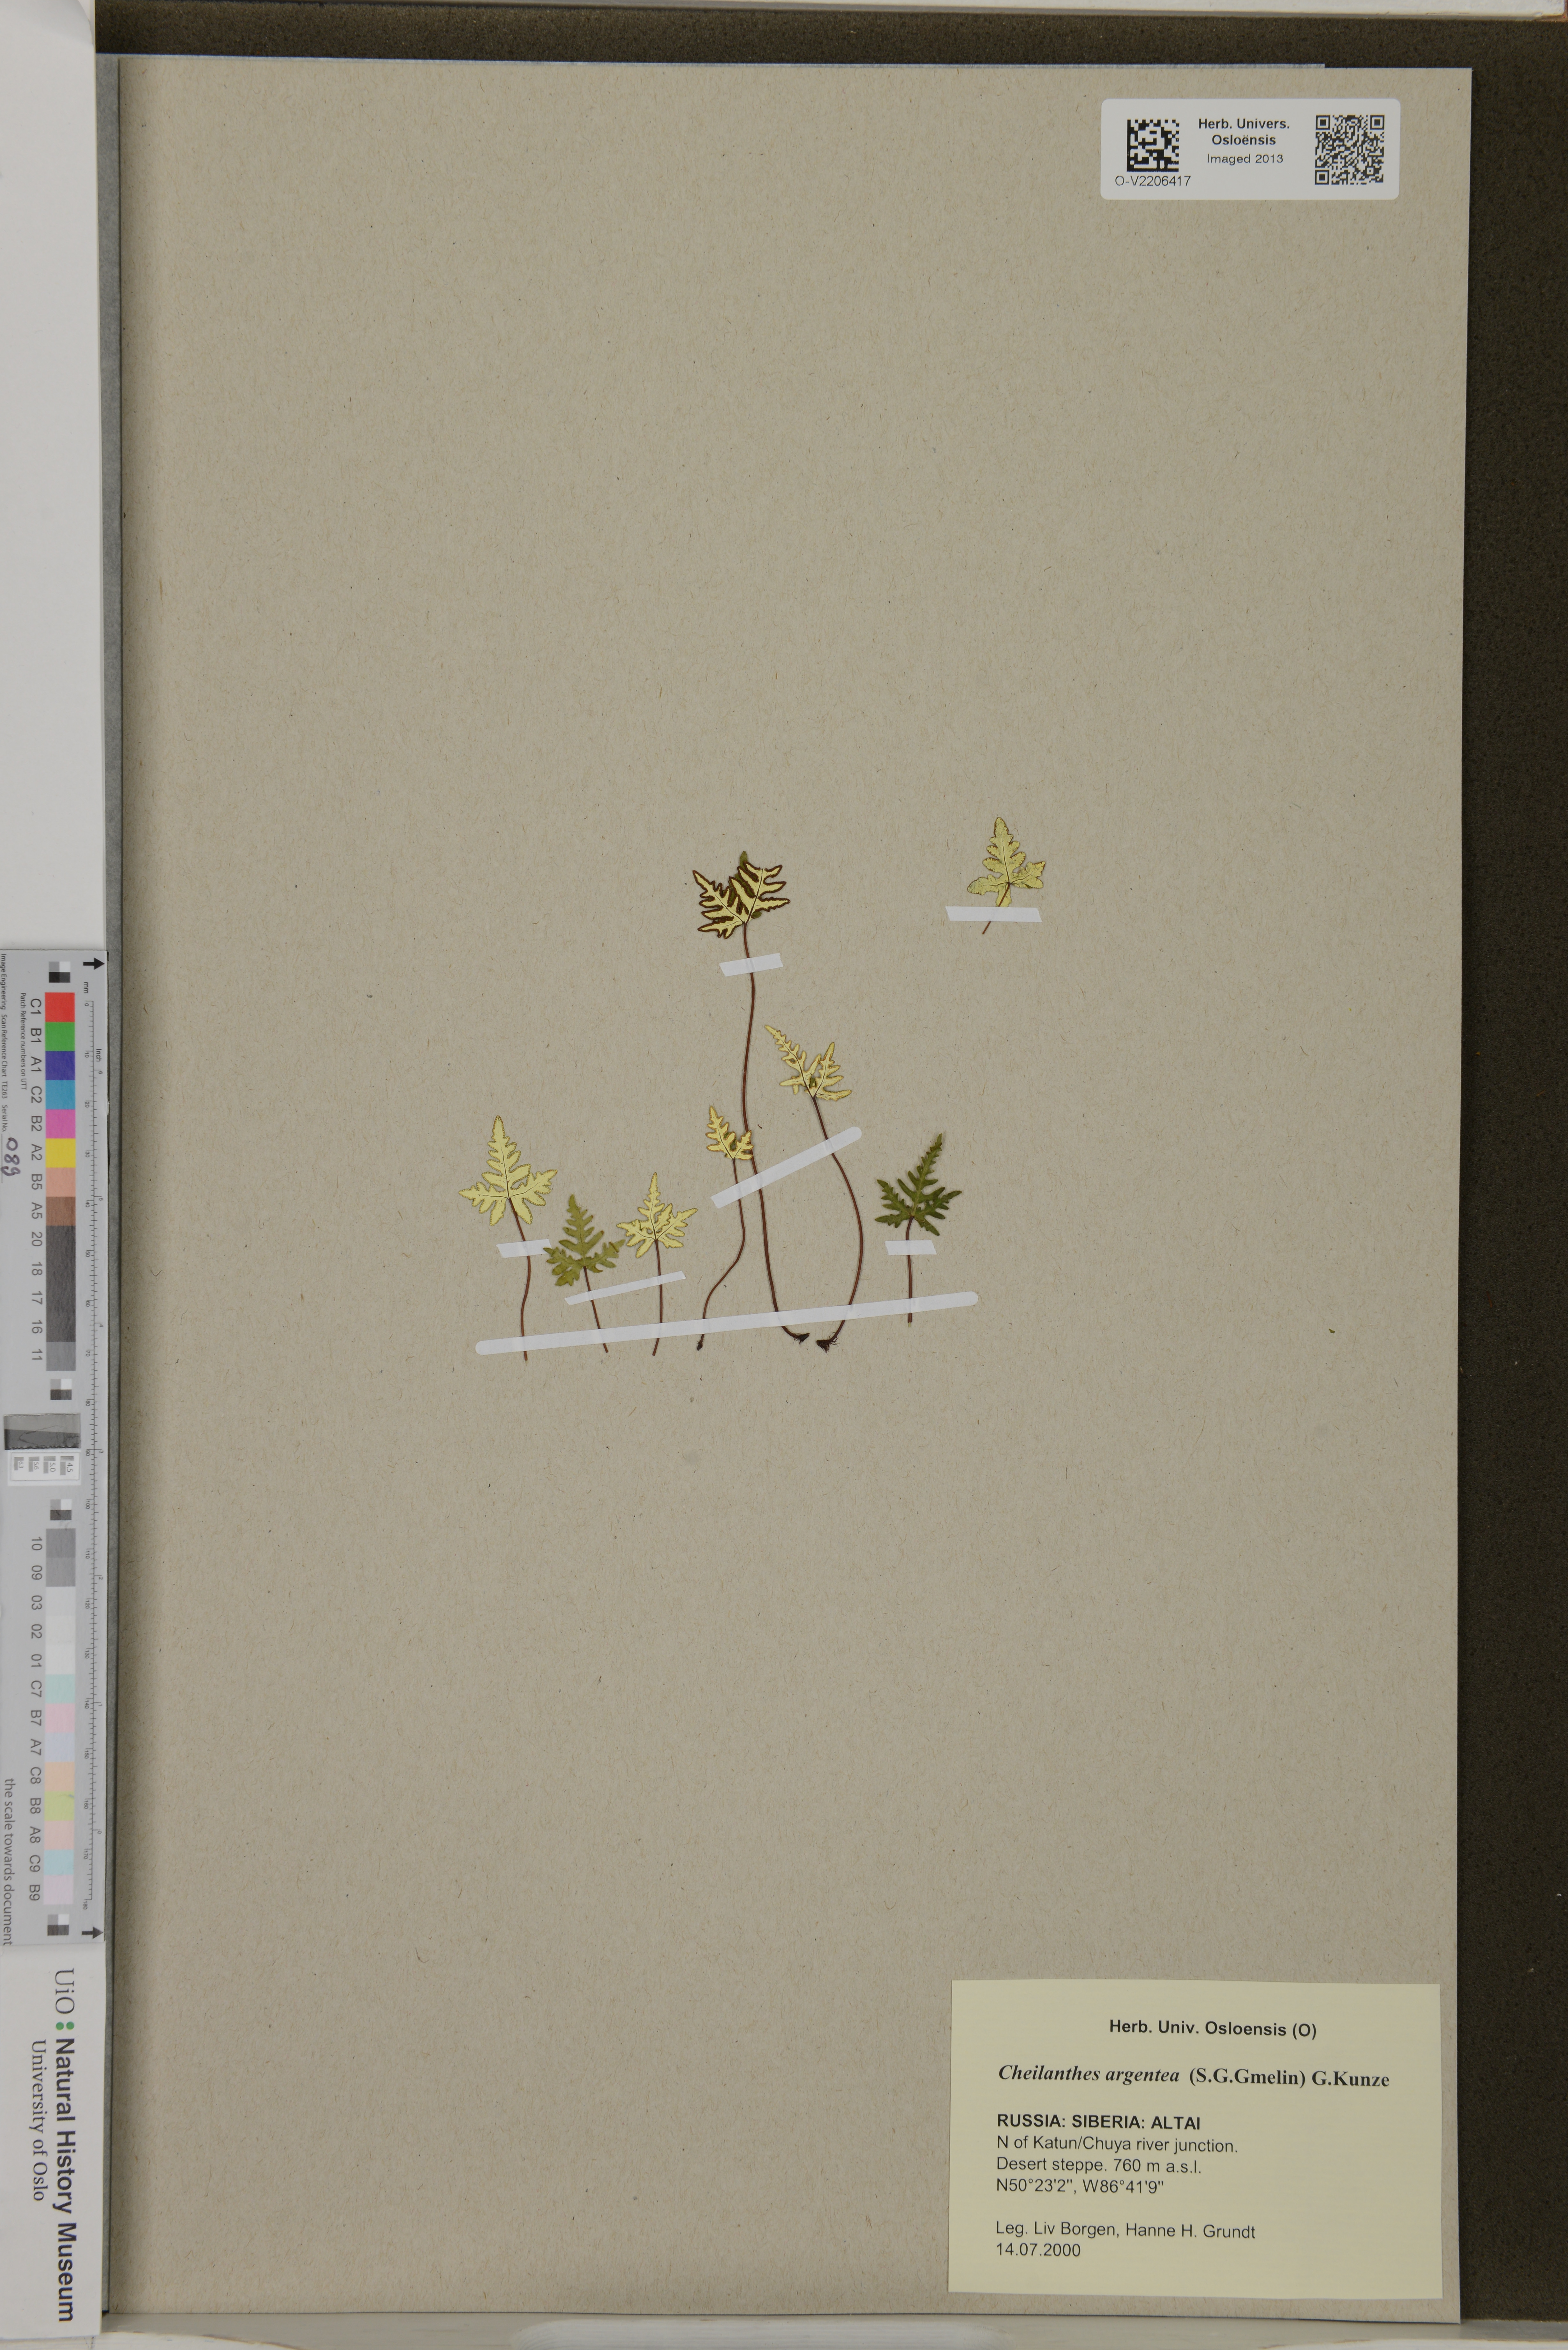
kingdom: Plantae
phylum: Tracheophyta
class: Polypodiopsida
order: Polypodiales
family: Pteridaceae
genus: Aleuritopteris
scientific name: Aleuritopteris argentea
